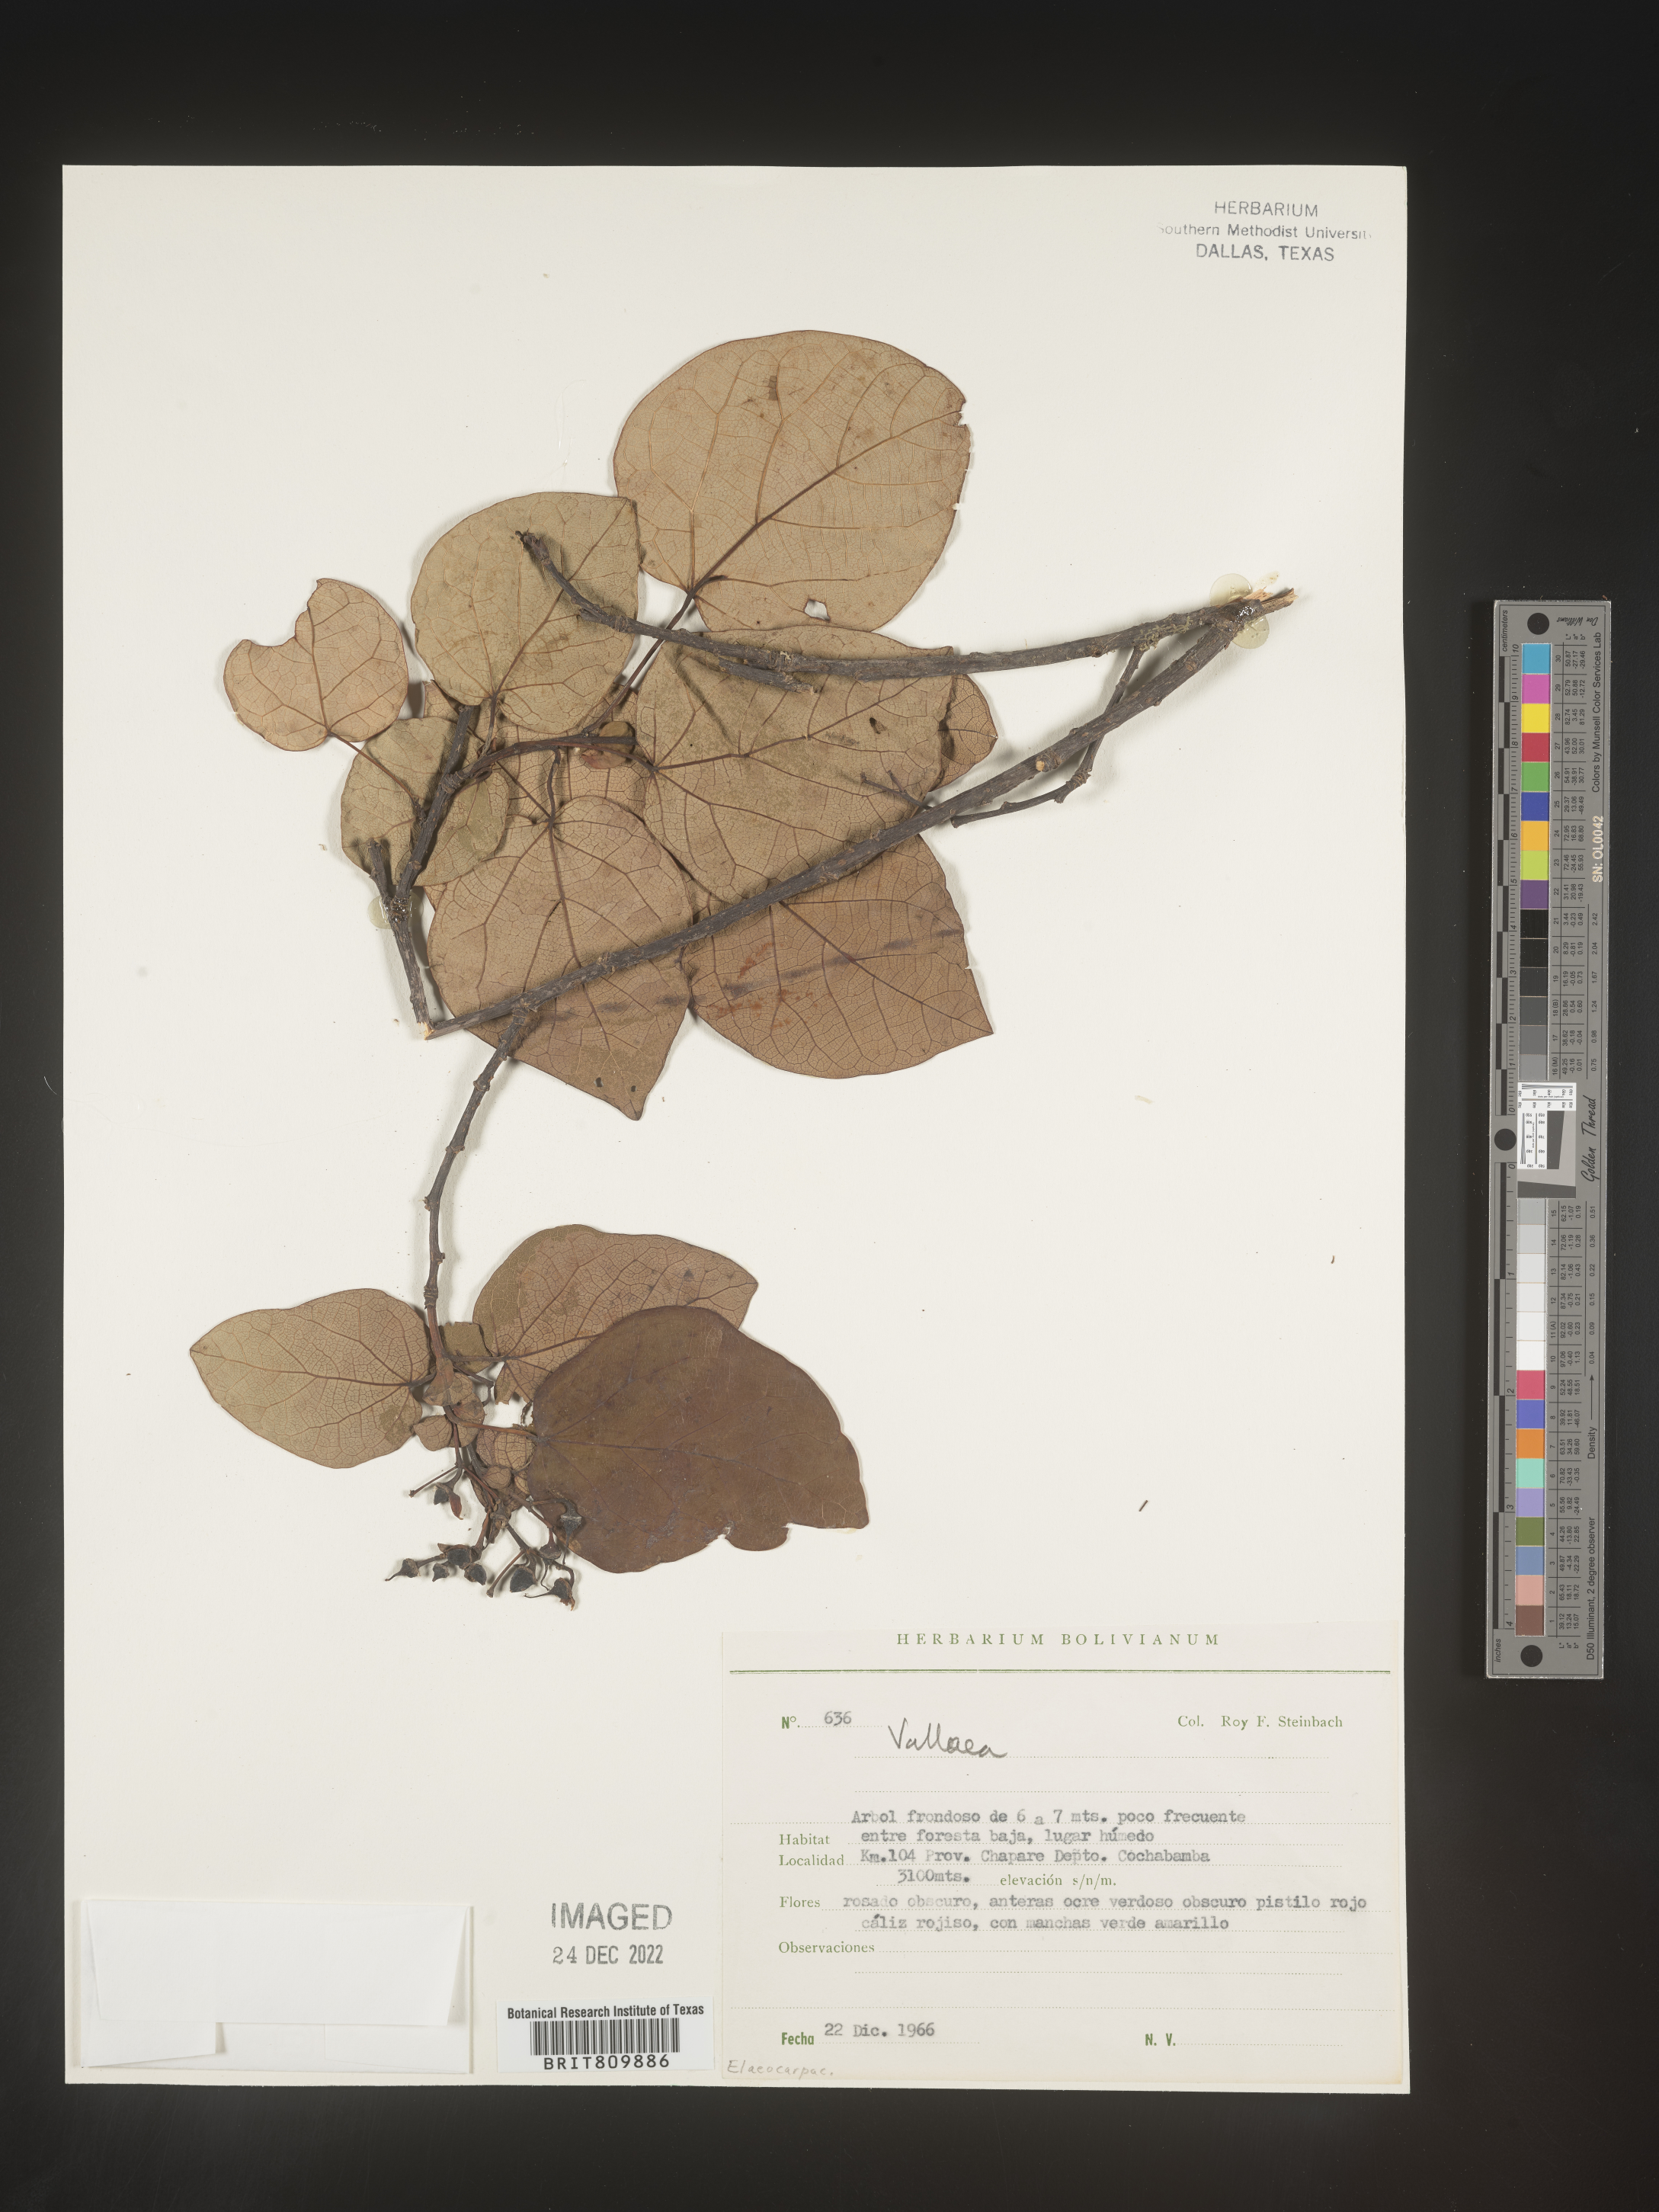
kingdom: Plantae
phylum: Tracheophyta
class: Magnoliopsida
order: Oxalidales
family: Elaeocarpaceae
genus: Vallea
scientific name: Vallea
